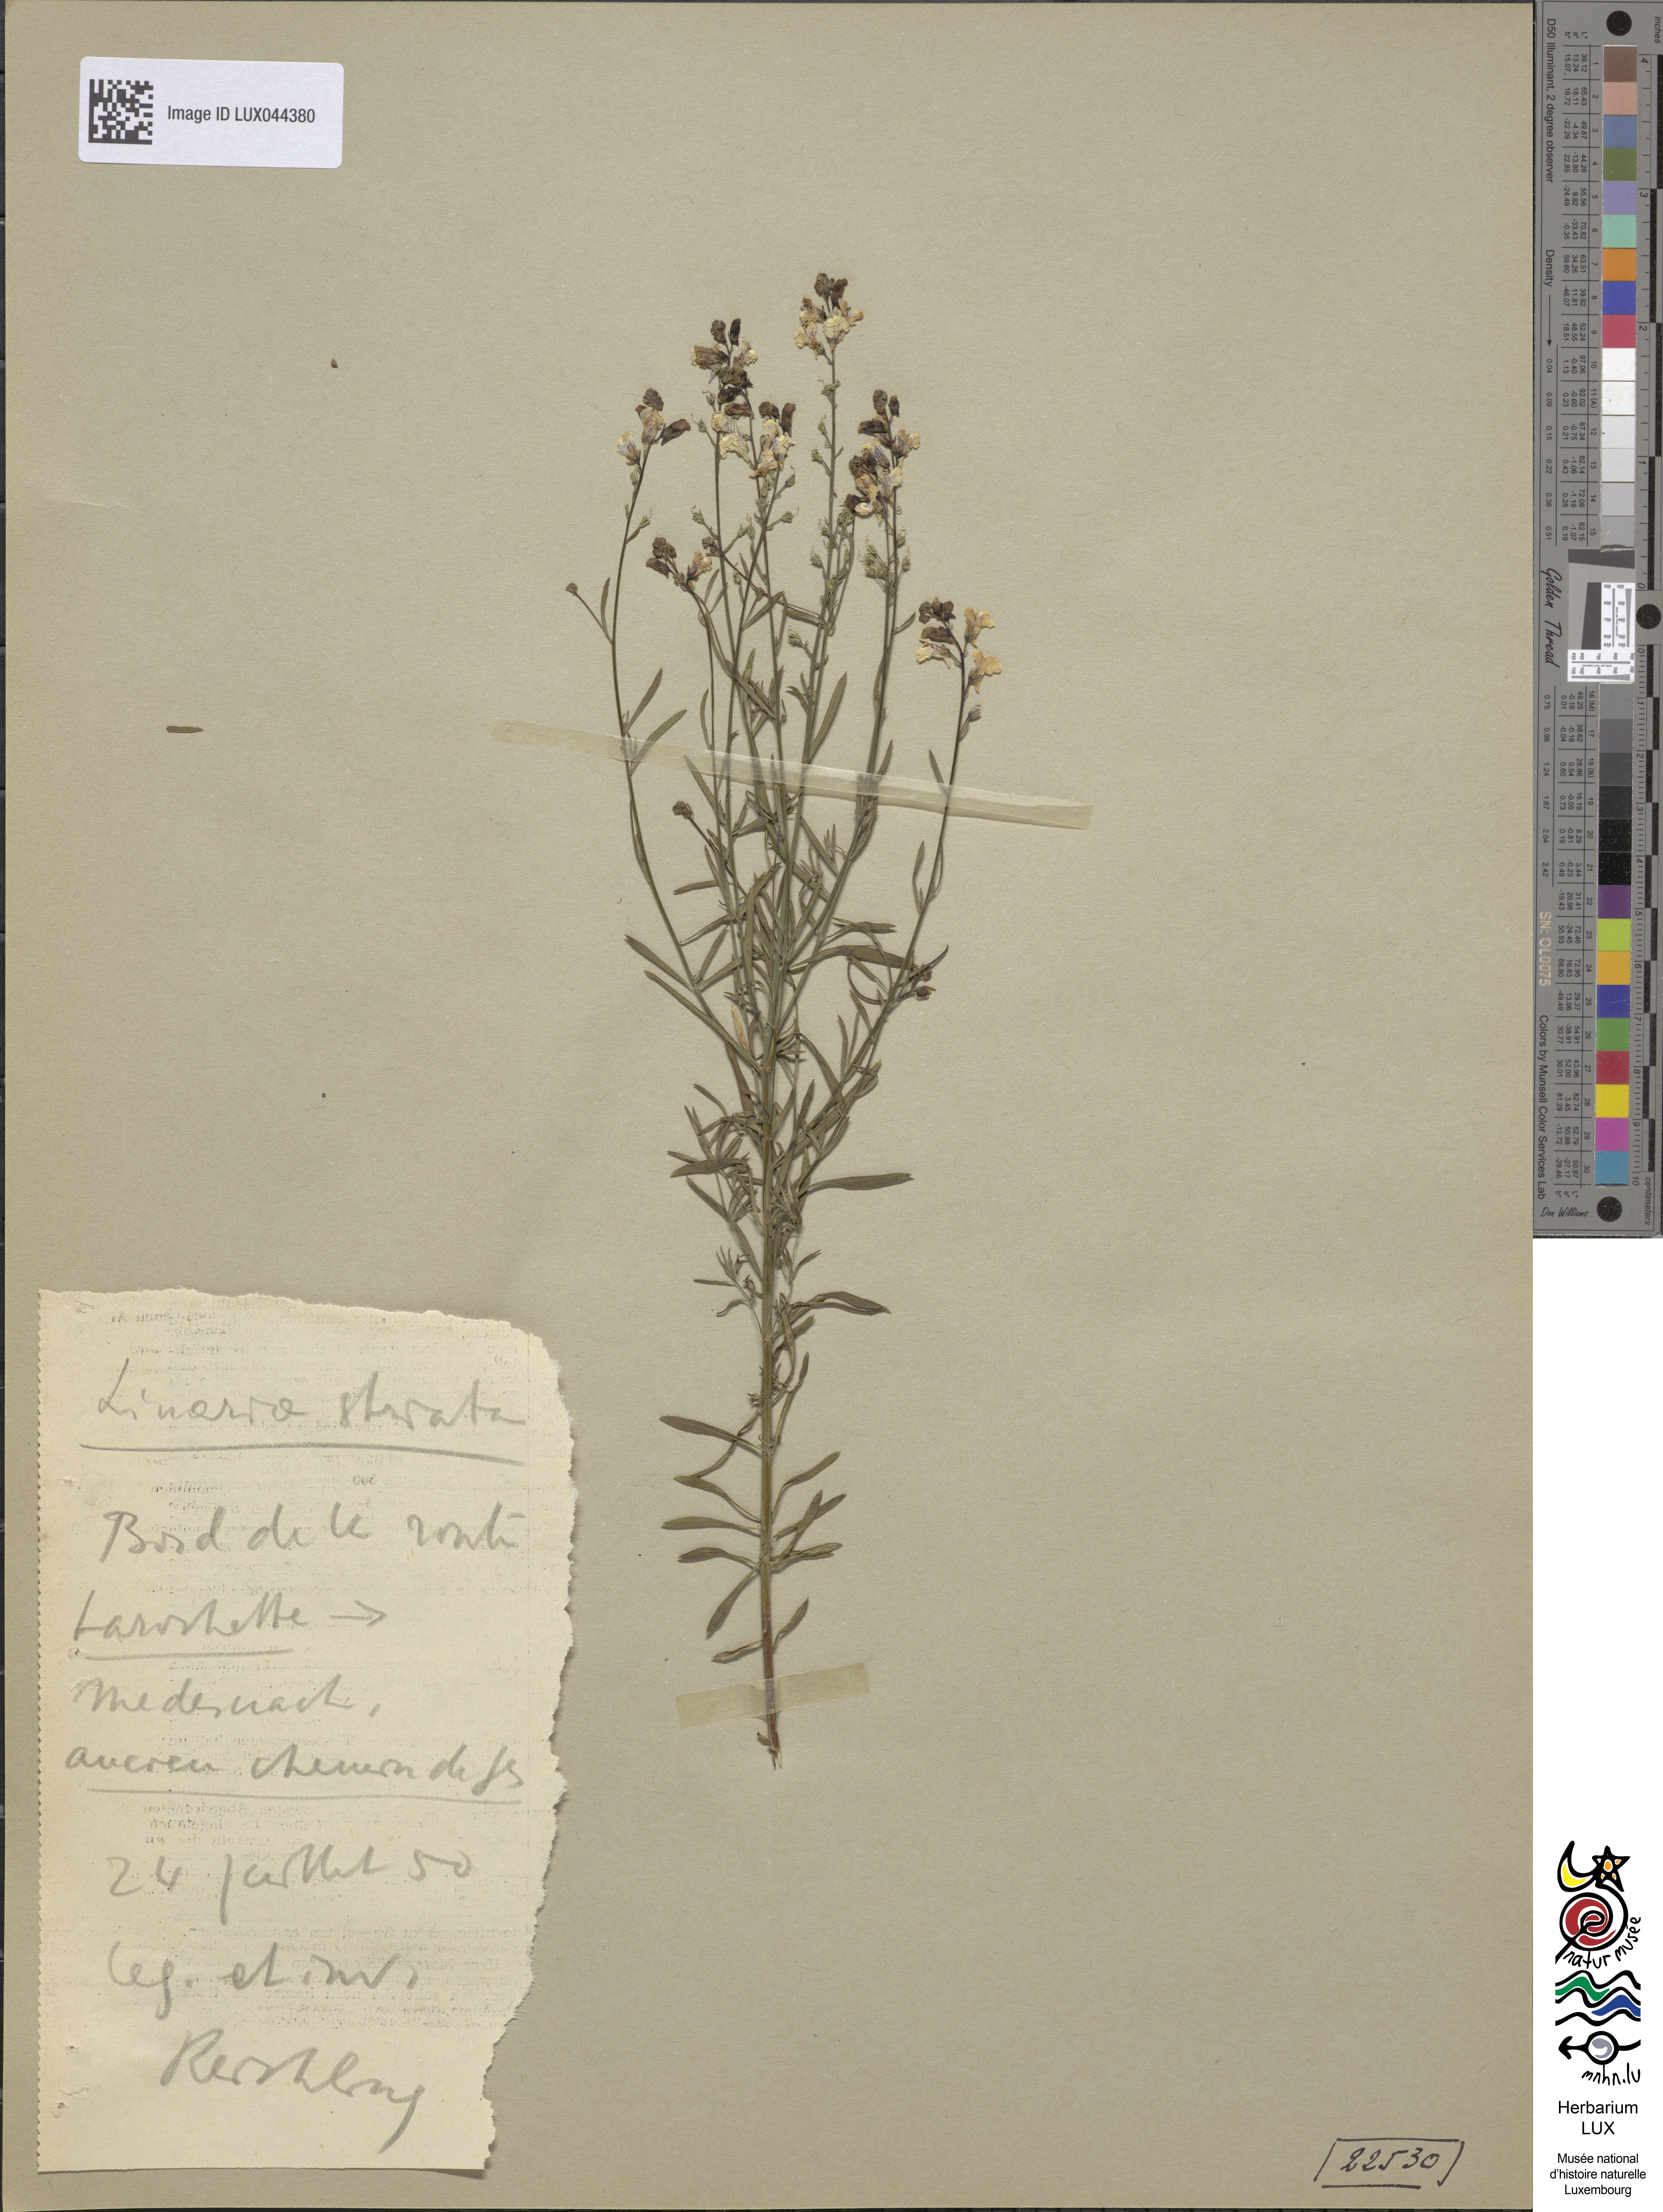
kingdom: Plantae
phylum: Tracheophyta
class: Magnoliopsida
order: Lamiales
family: Plantaginaceae
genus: Linaria
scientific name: Linaria repens
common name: Pale toadflax
